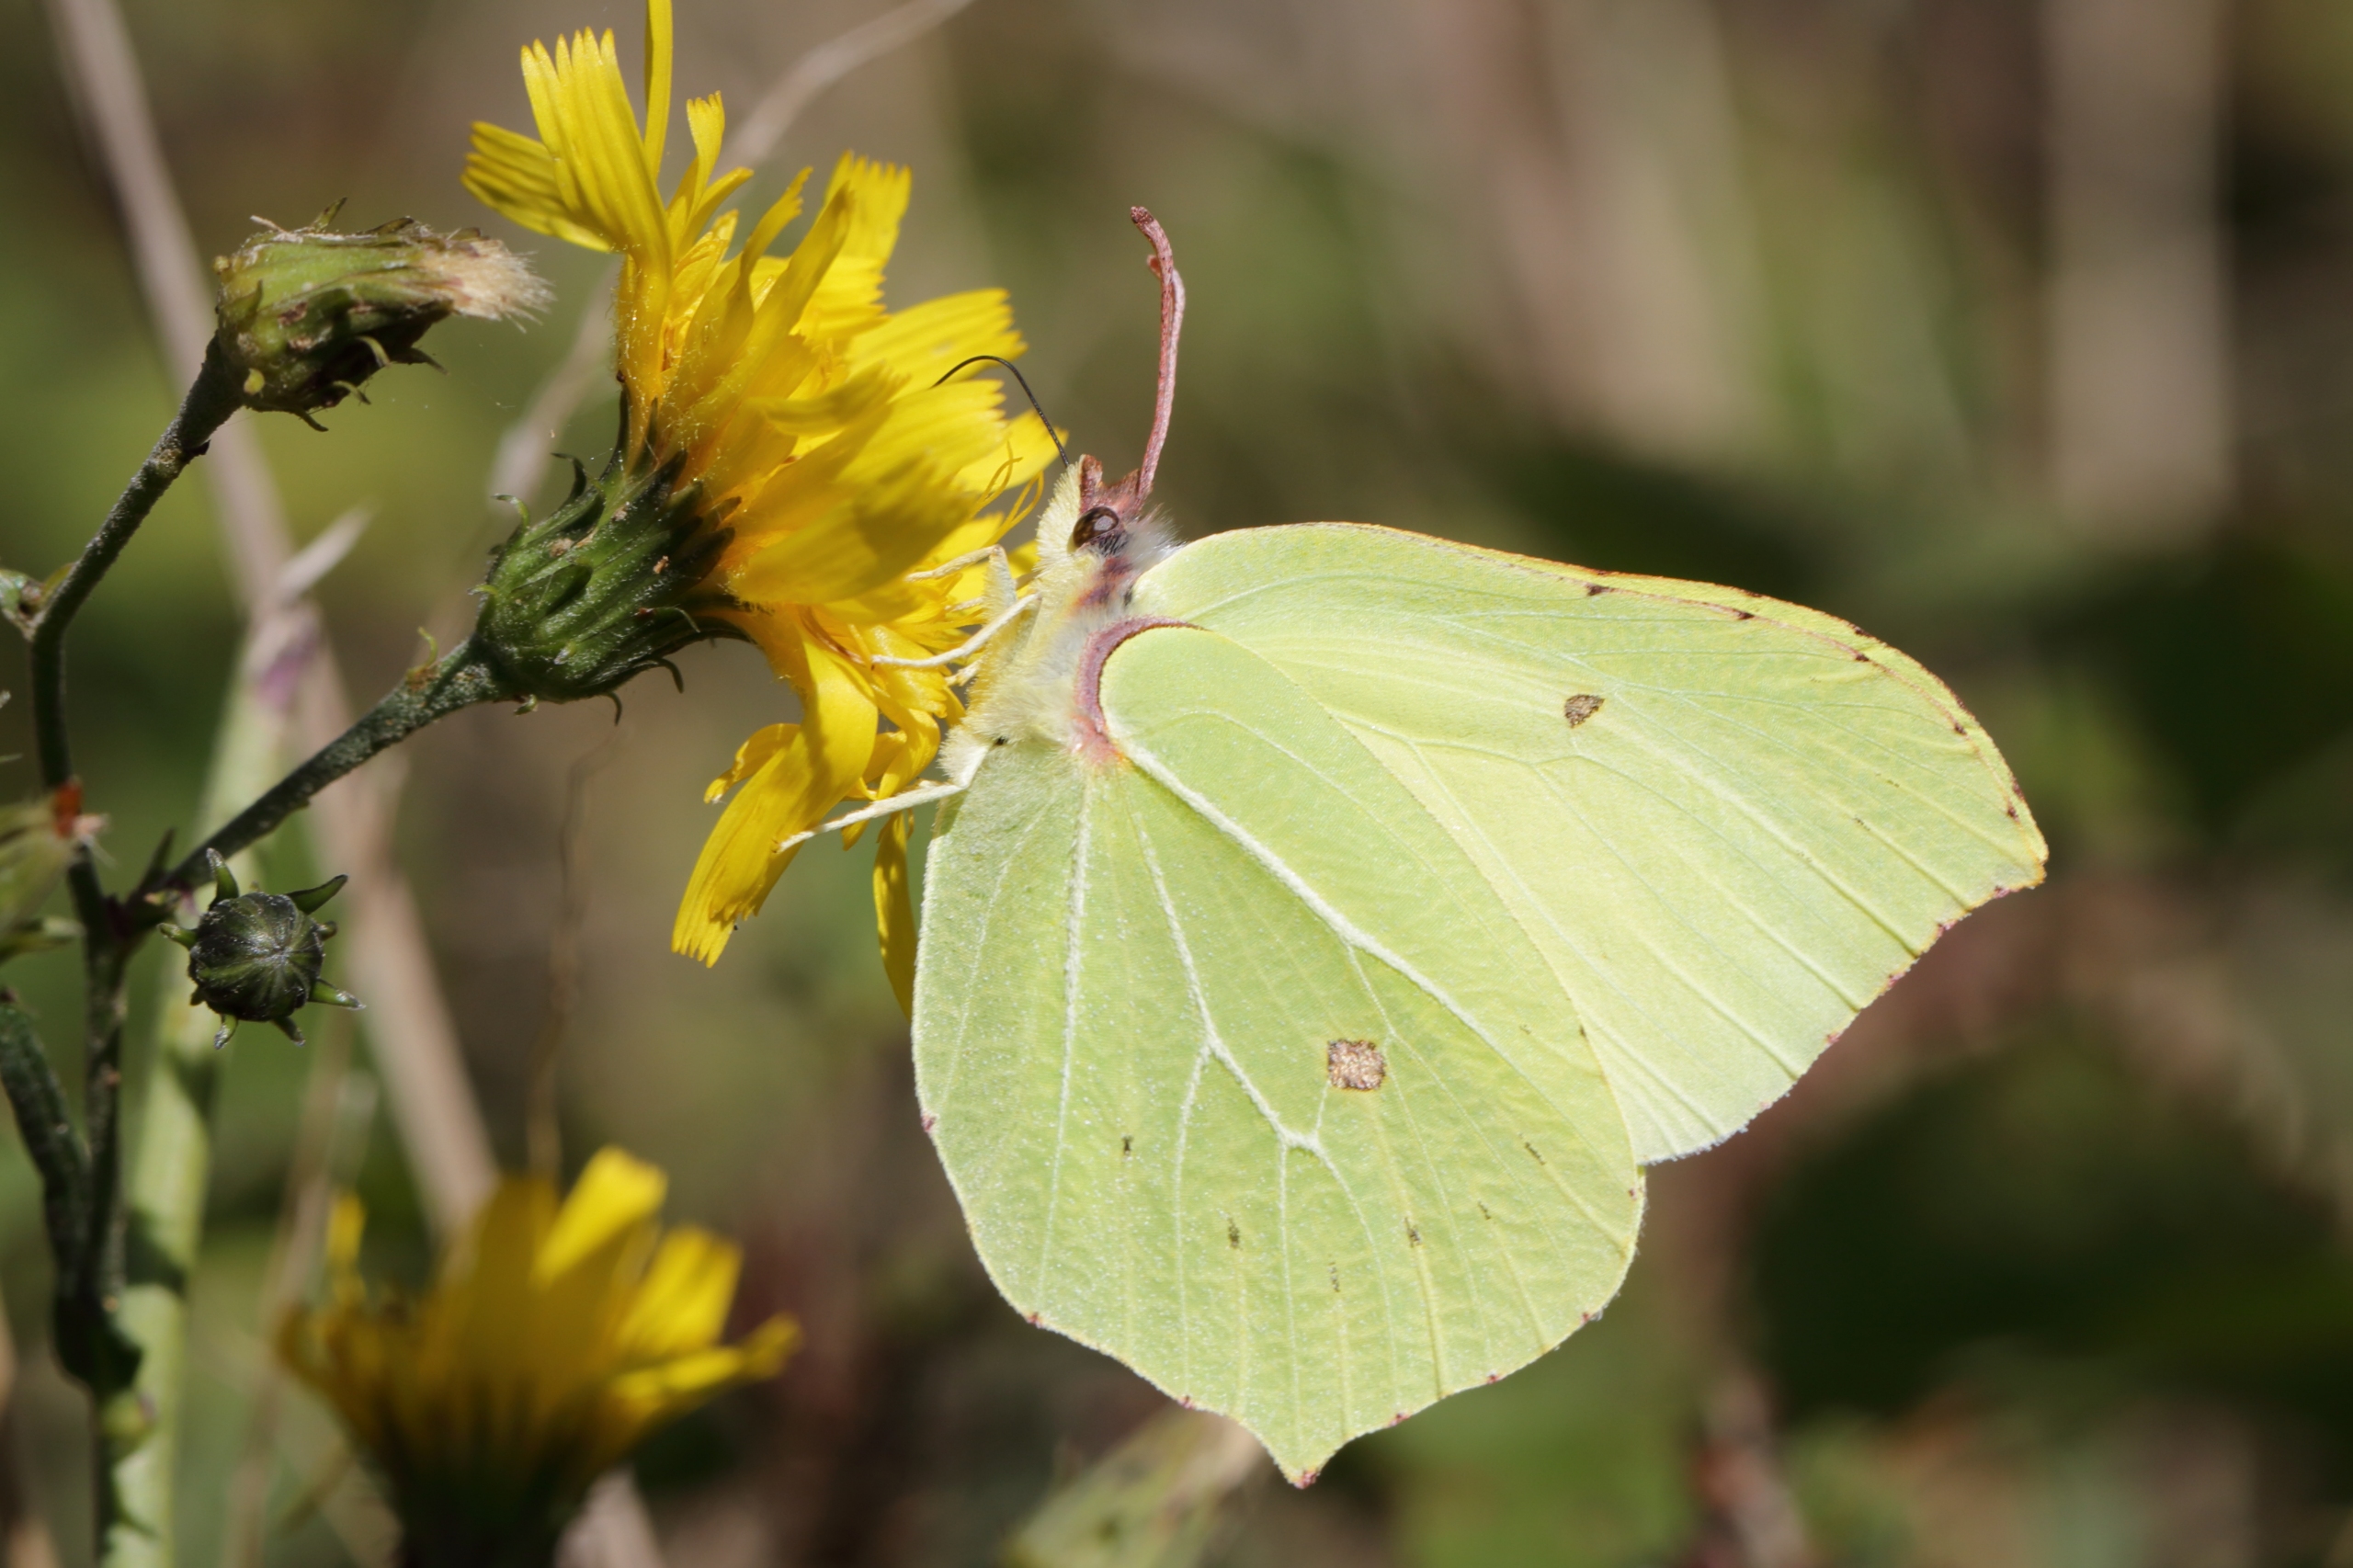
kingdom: Animalia
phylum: Arthropoda
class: Insecta
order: Lepidoptera
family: Pieridae
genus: Gonepteryx
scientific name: Gonepteryx rhamni
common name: Citronsommerfugl
